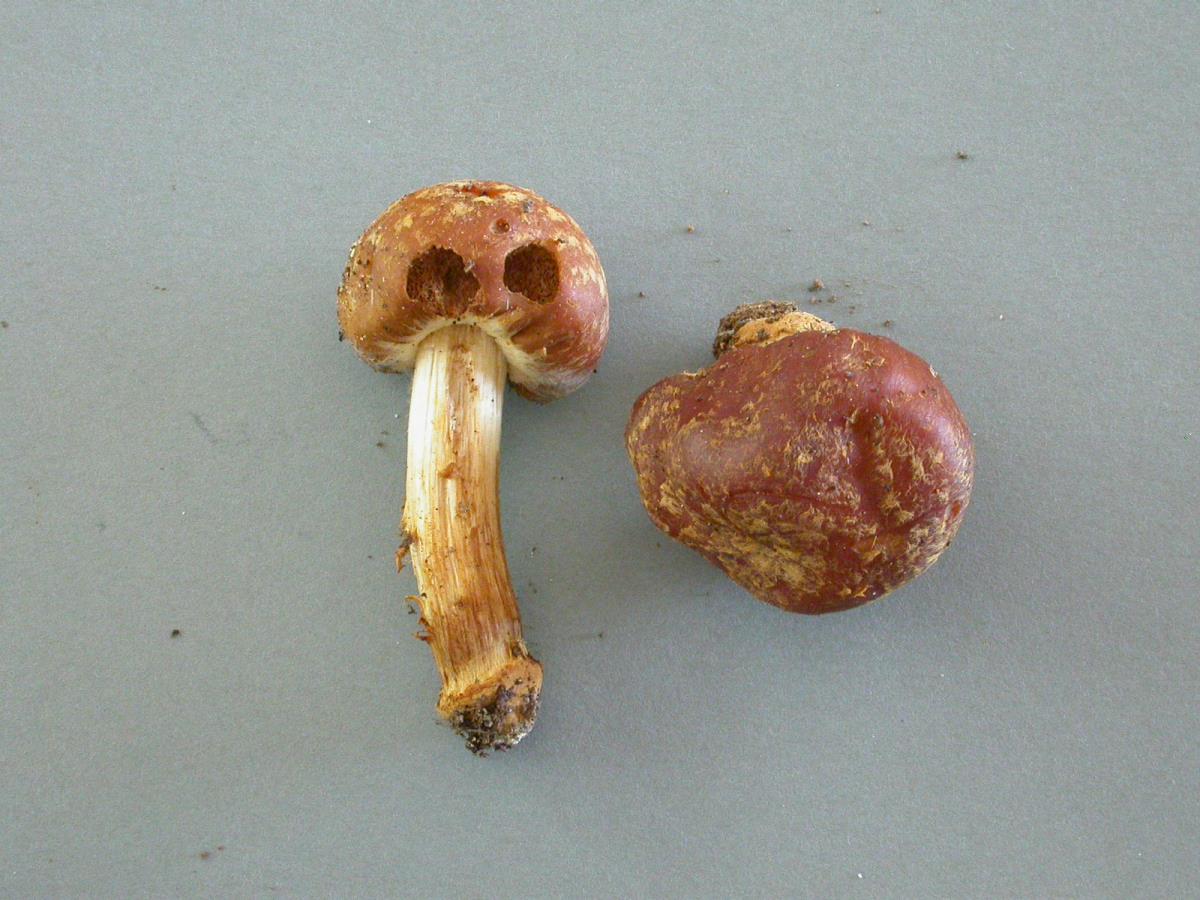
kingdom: Fungi
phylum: Basidiomycota
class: Agaricomycetes
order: Agaricales
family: Cortinariaceae
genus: Cortinarius
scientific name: Cortinarius napivelatus
